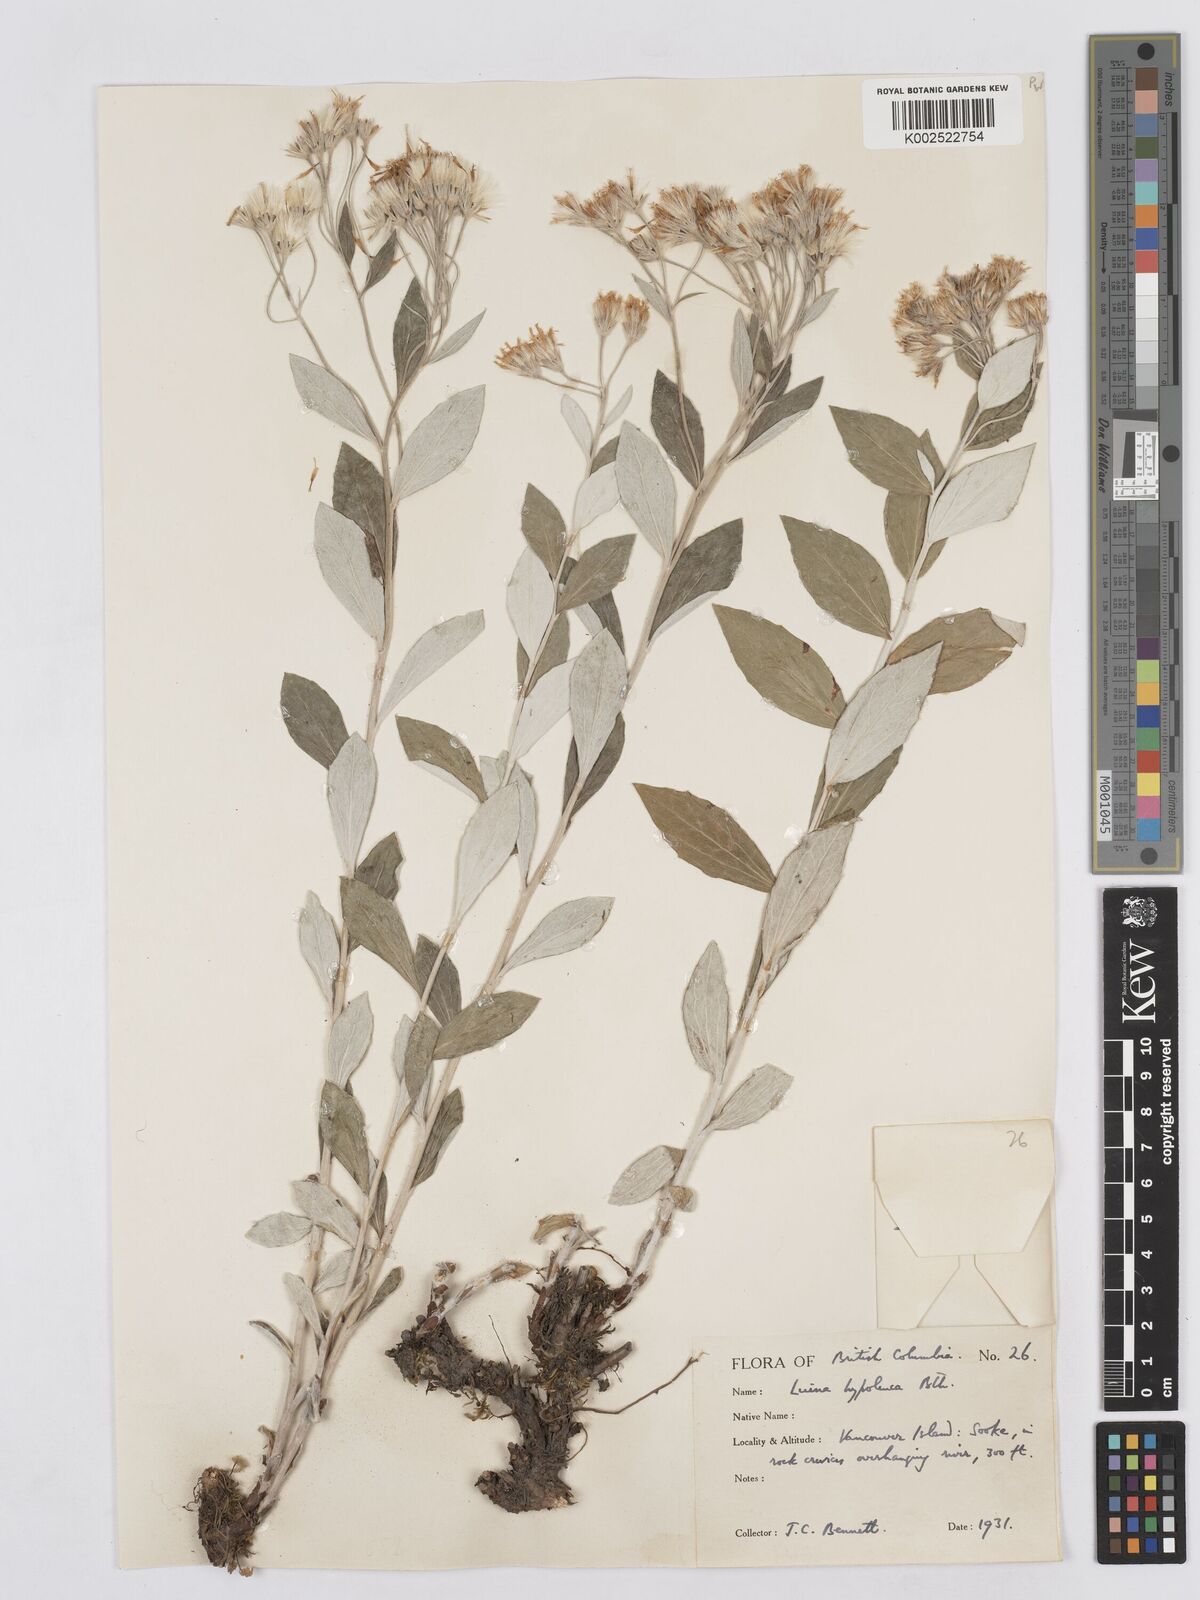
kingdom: Plantae
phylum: Tracheophyta
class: Magnoliopsida
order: Asterales
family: Asteraceae
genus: Luina
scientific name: Luina hypoleuca
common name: Little-leaved luina
